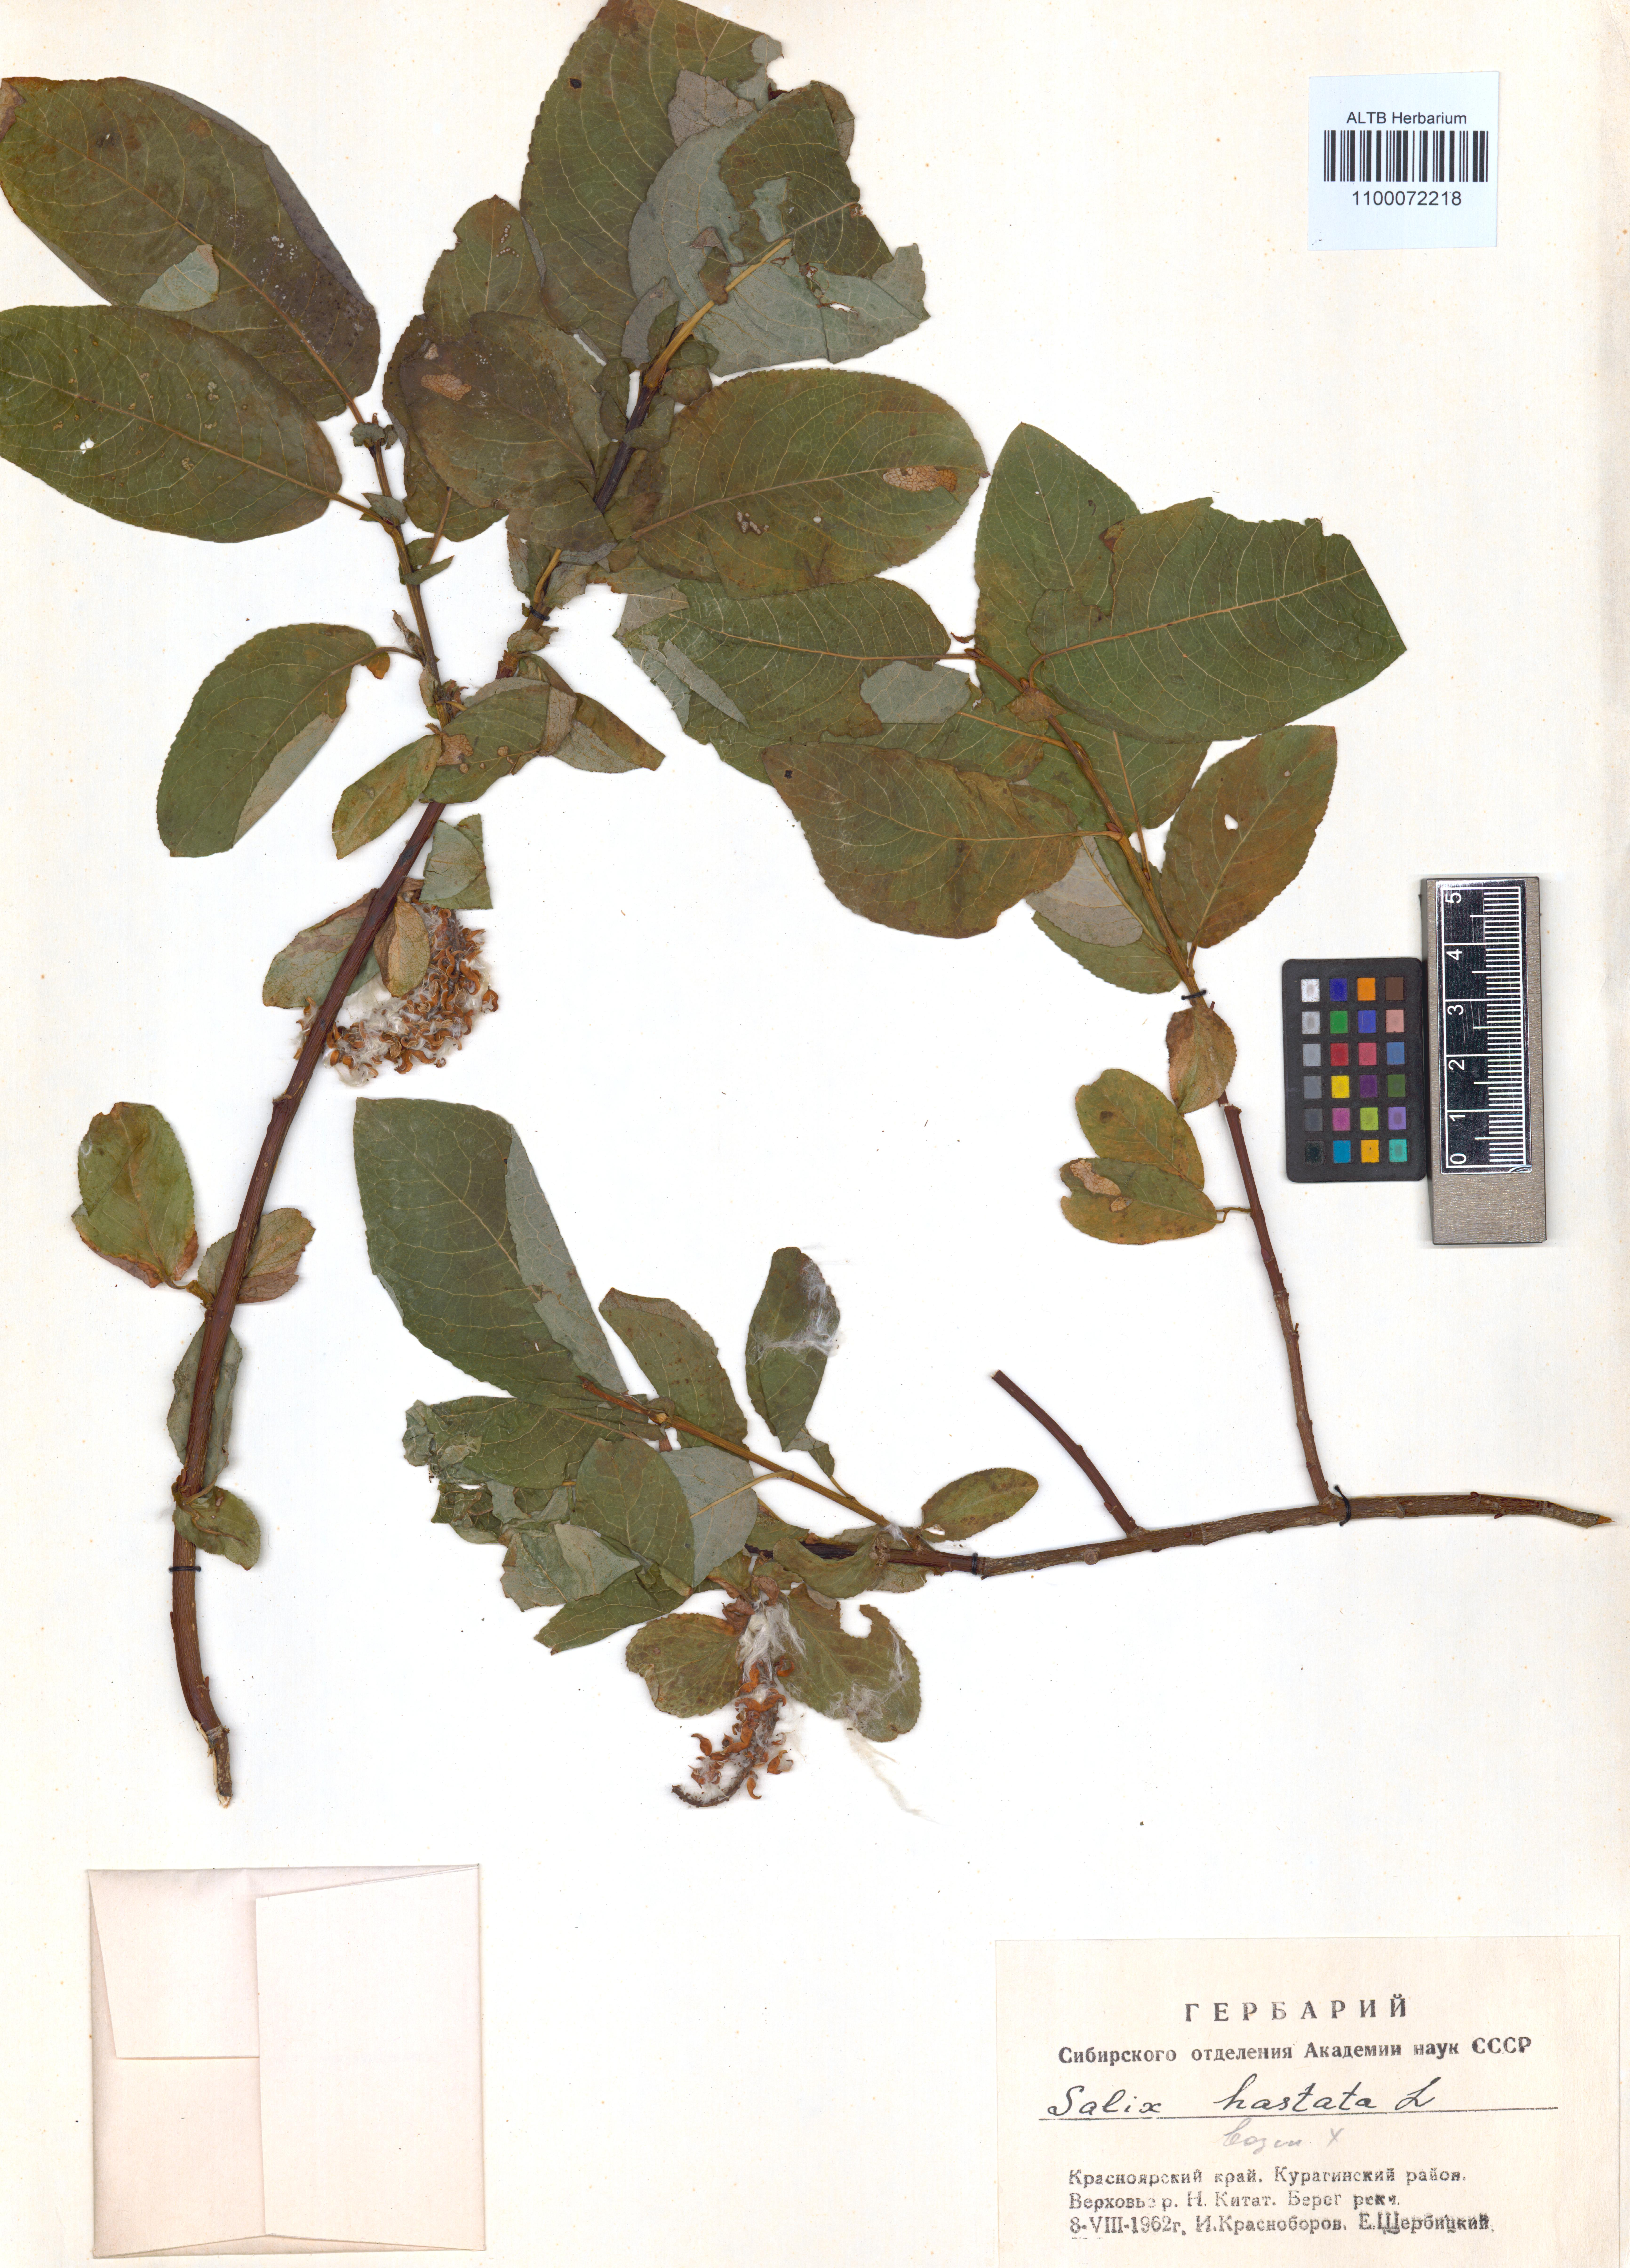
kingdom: Plantae
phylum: Tracheophyta
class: Magnoliopsida
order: Malpighiales
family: Salicaceae
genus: Salix
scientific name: Salix hastata
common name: Halberd willow
